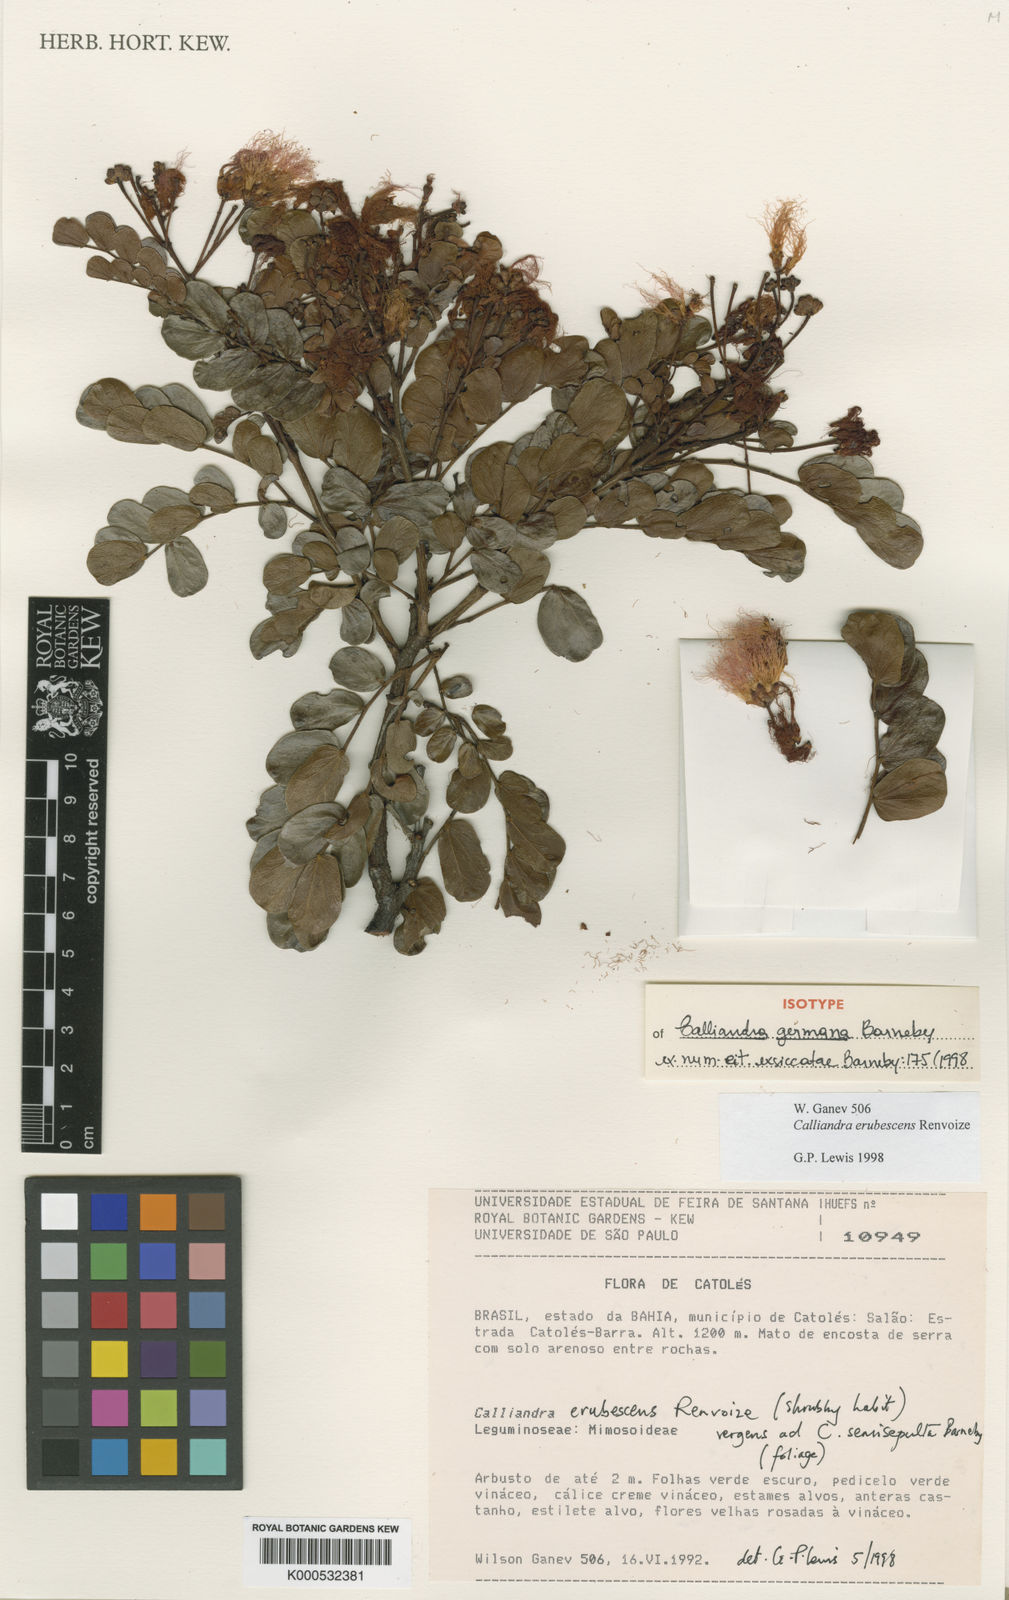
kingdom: Plantae
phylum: Tracheophyta
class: Magnoliopsida
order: Fabales
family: Fabaceae
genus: Calliandra
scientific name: Calliandra germana
